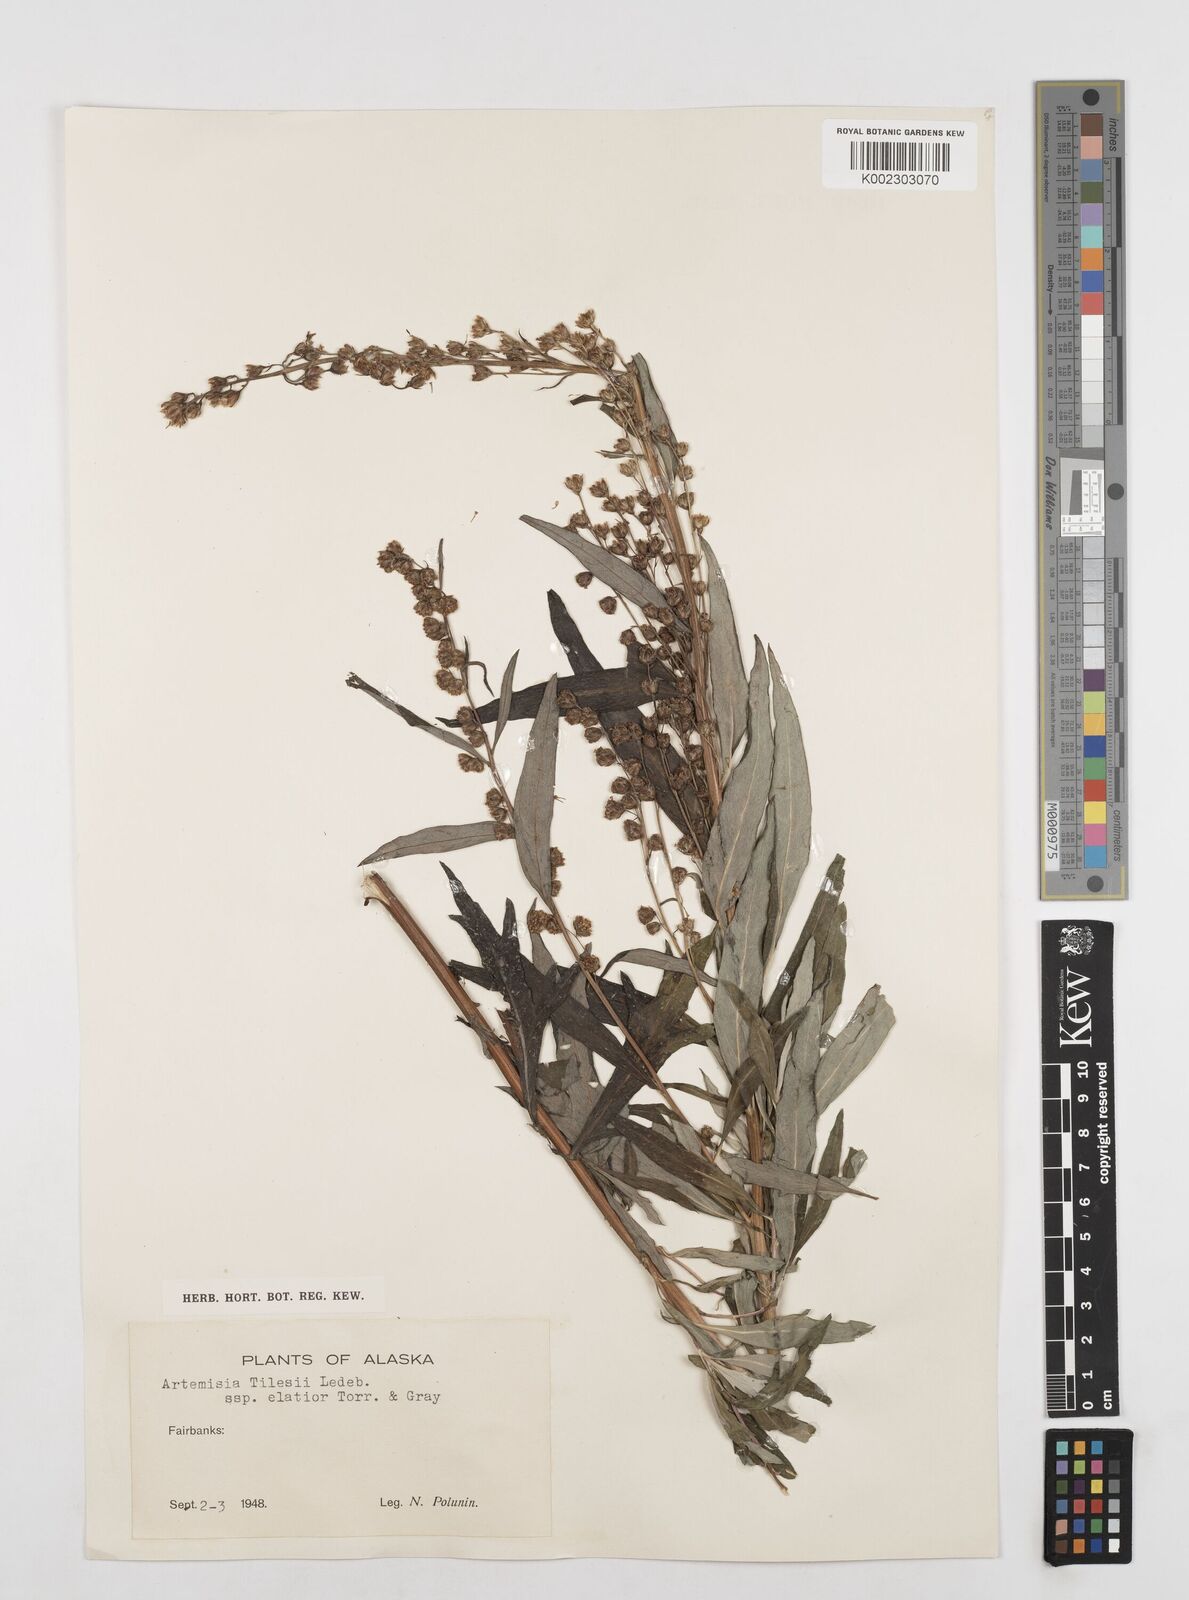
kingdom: Plantae
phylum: Tracheophyta
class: Magnoliopsida
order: Asterales
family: Asteraceae
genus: Artemisia
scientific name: Artemisia tilesii
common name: Aleutian mugwort
